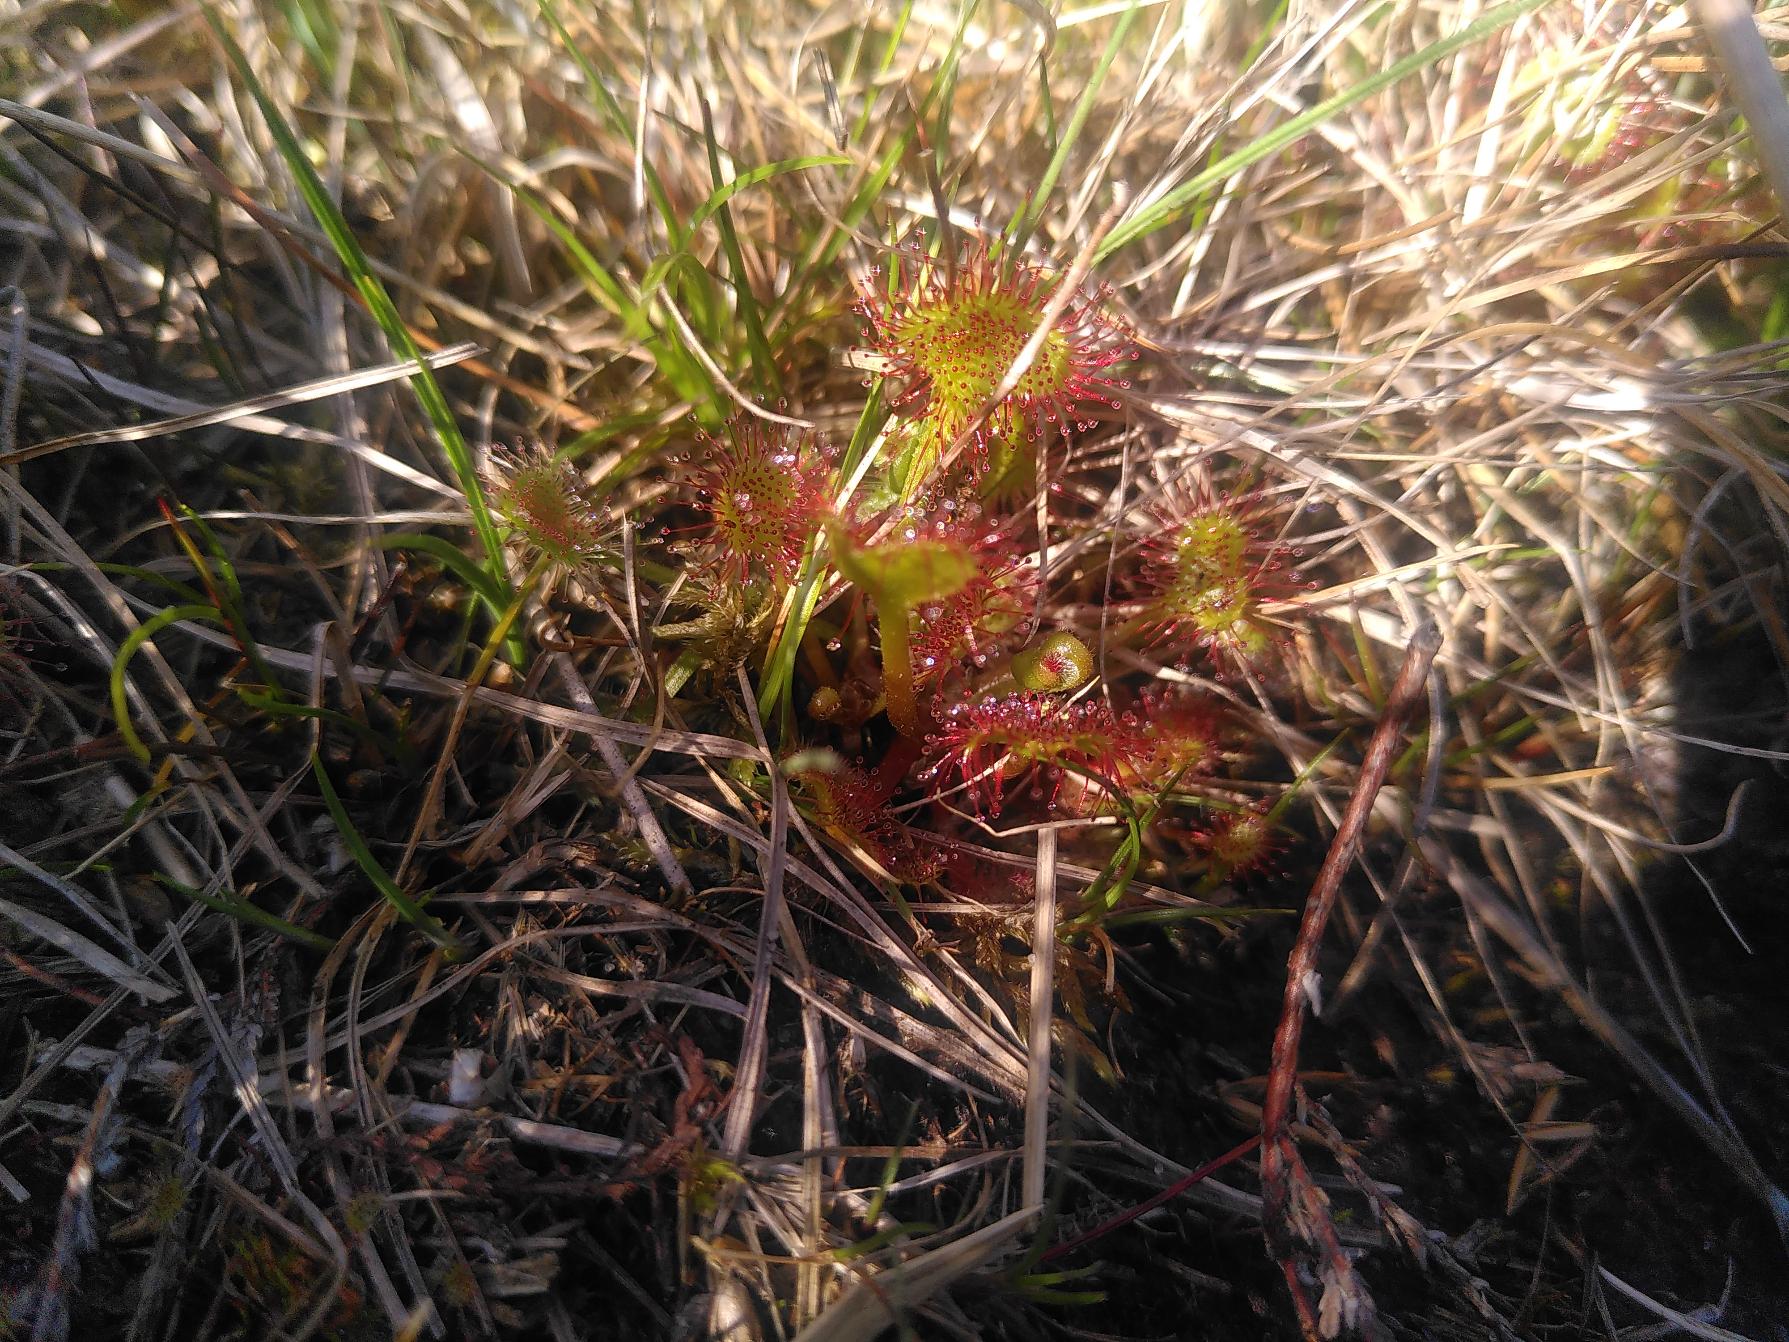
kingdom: Plantae
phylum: Tracheophyta
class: Magnoliopsida
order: Caryophyllales
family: Droseraceae
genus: Drosera
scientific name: Drosera rotundifolia
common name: Rundbladet soldug
